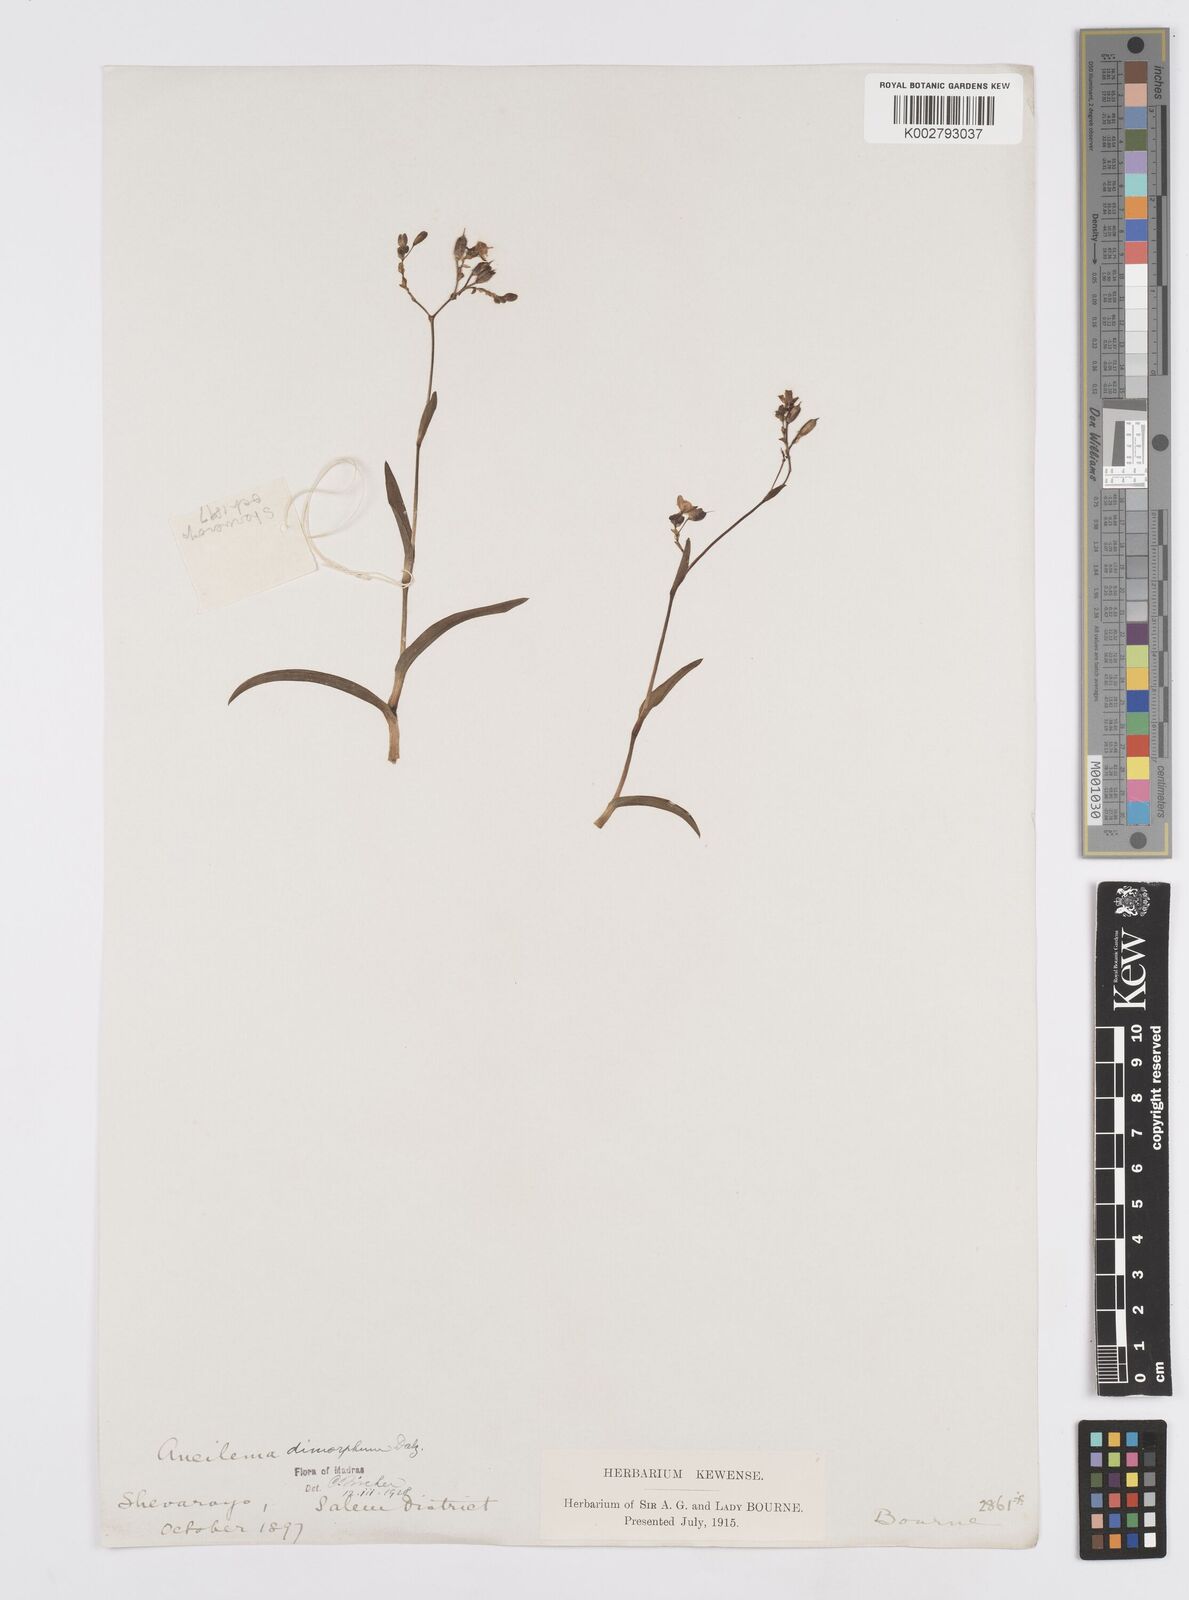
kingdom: Plantae
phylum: Tracheophyta
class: Liliopsida
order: Commelinales
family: Commelinaceae
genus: Murdannia
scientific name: Murdannia dimorpha
